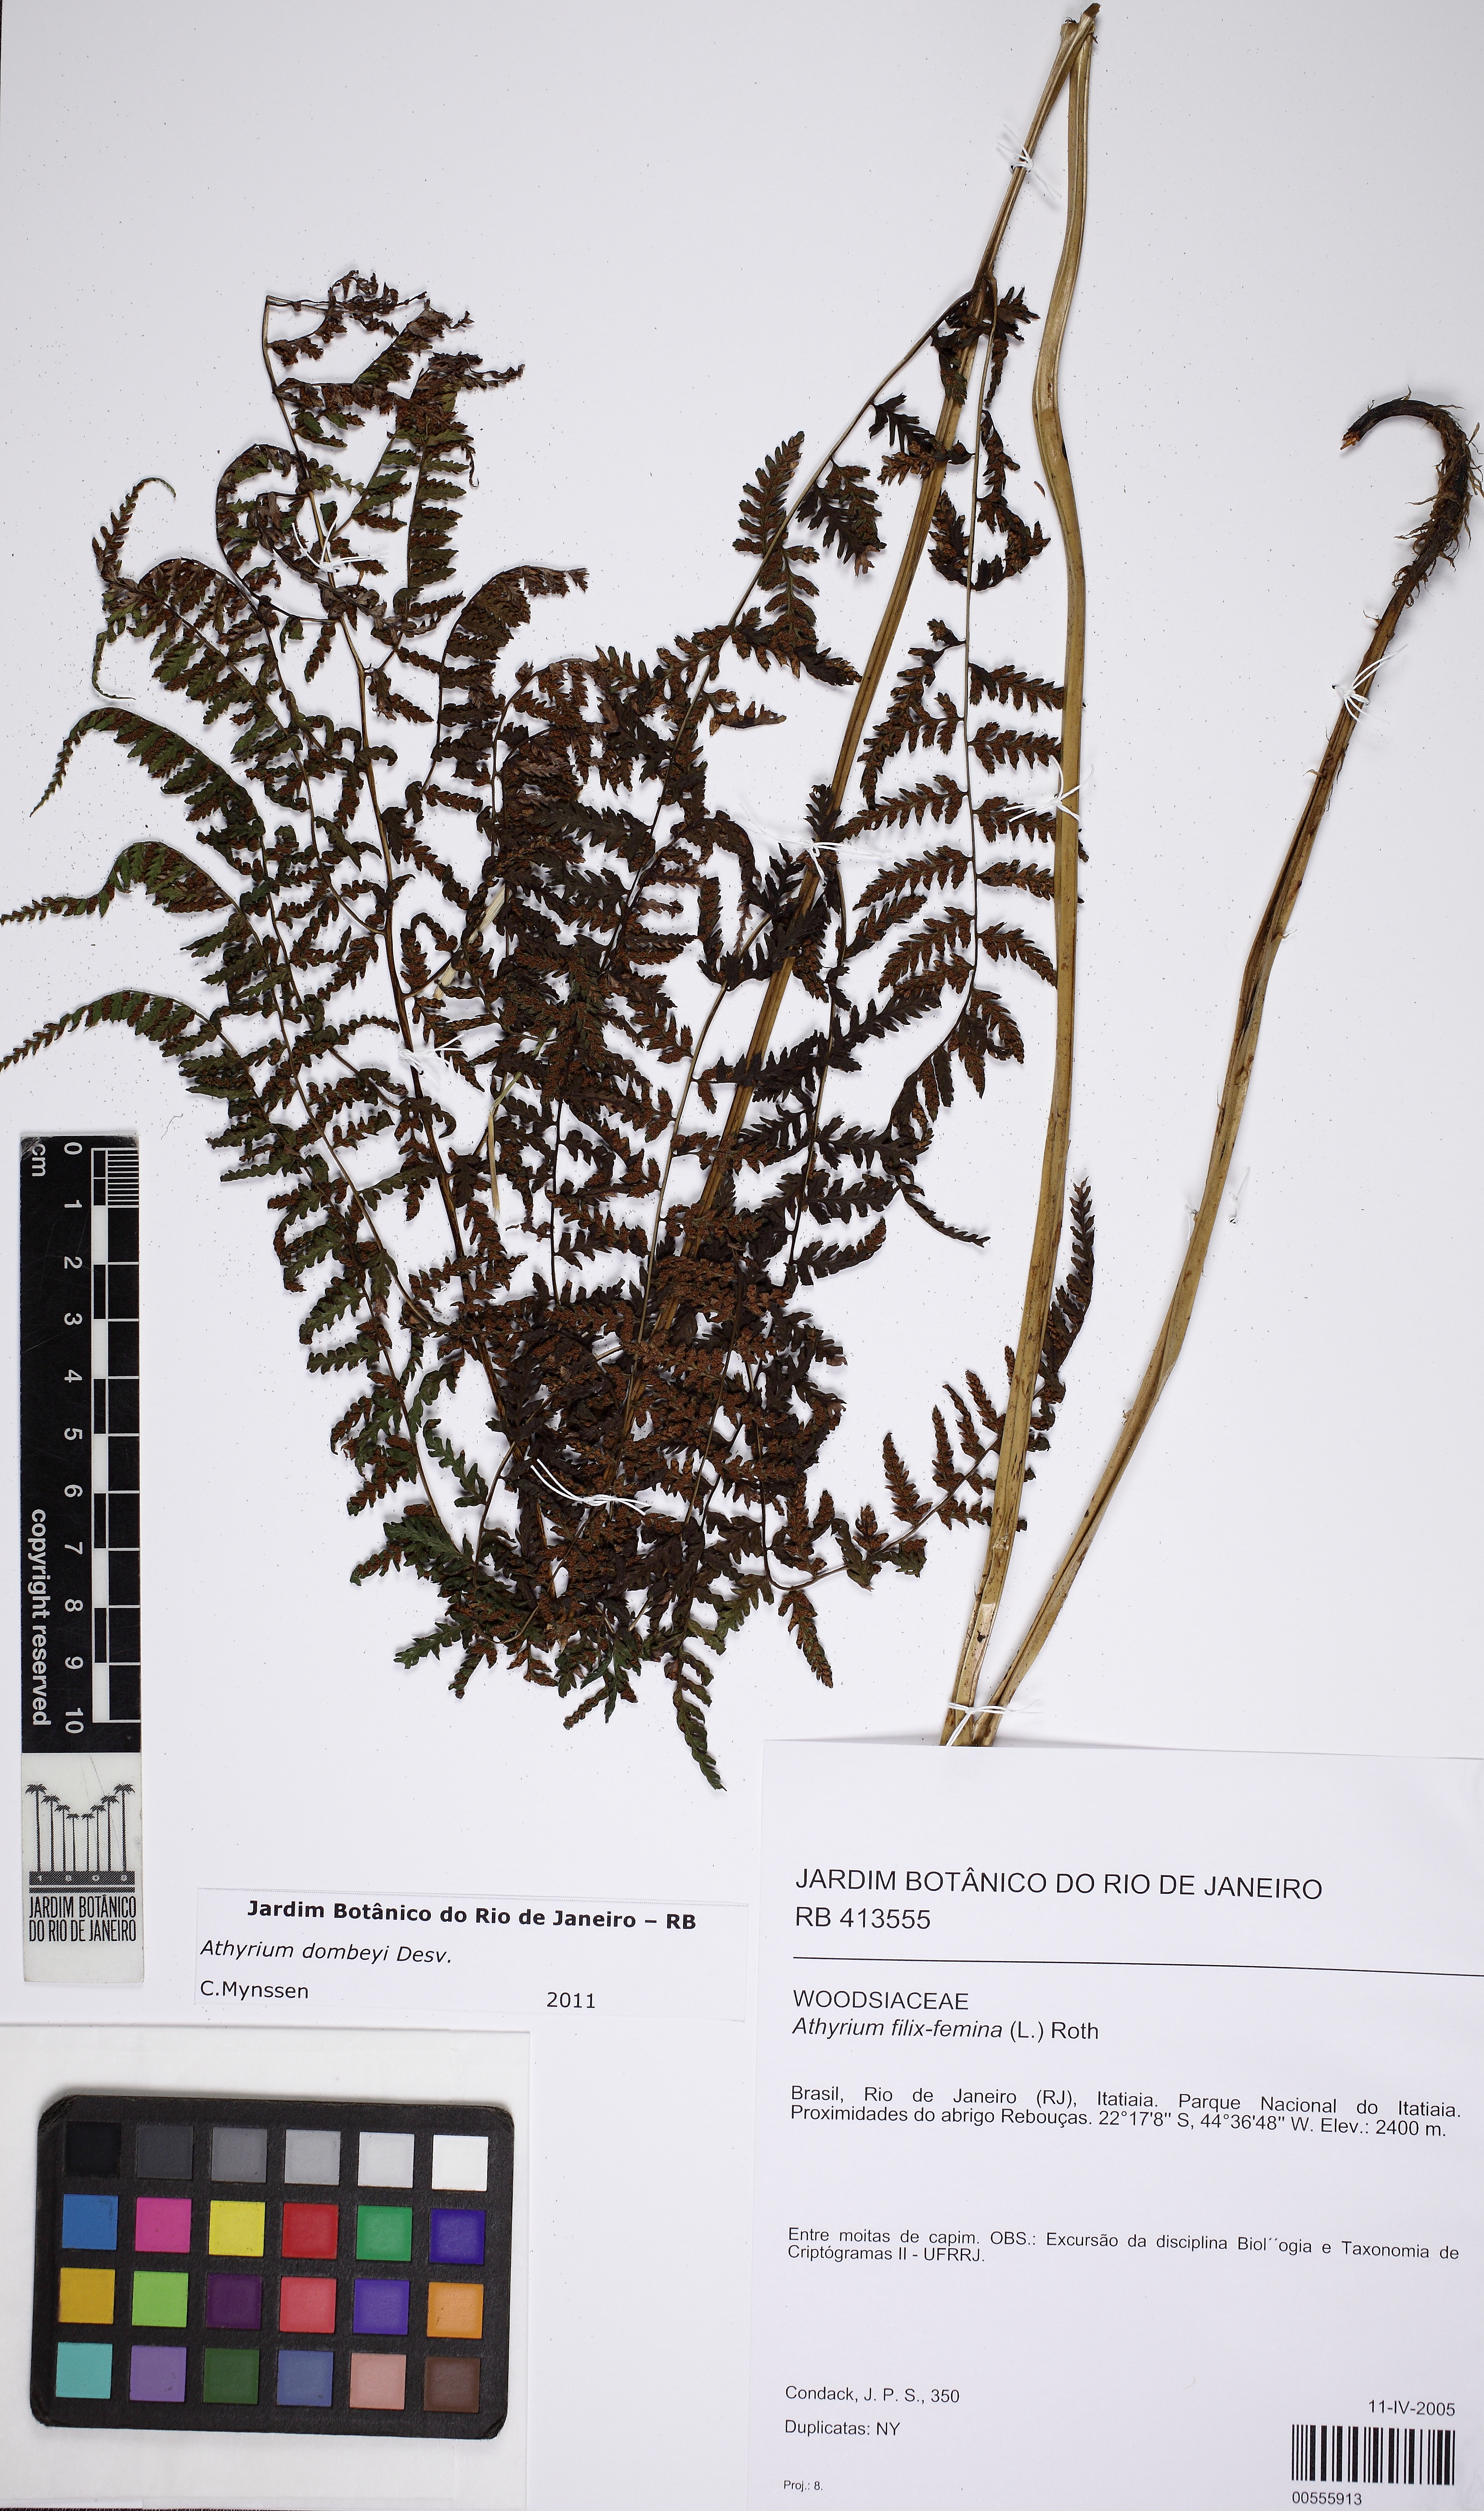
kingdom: Plantae
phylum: Tracheophyta
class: Polypodiopsida
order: Polypodiales
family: Athyriaceae
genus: Athyrium
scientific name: Athyrium filix-femina
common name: Lady fern
